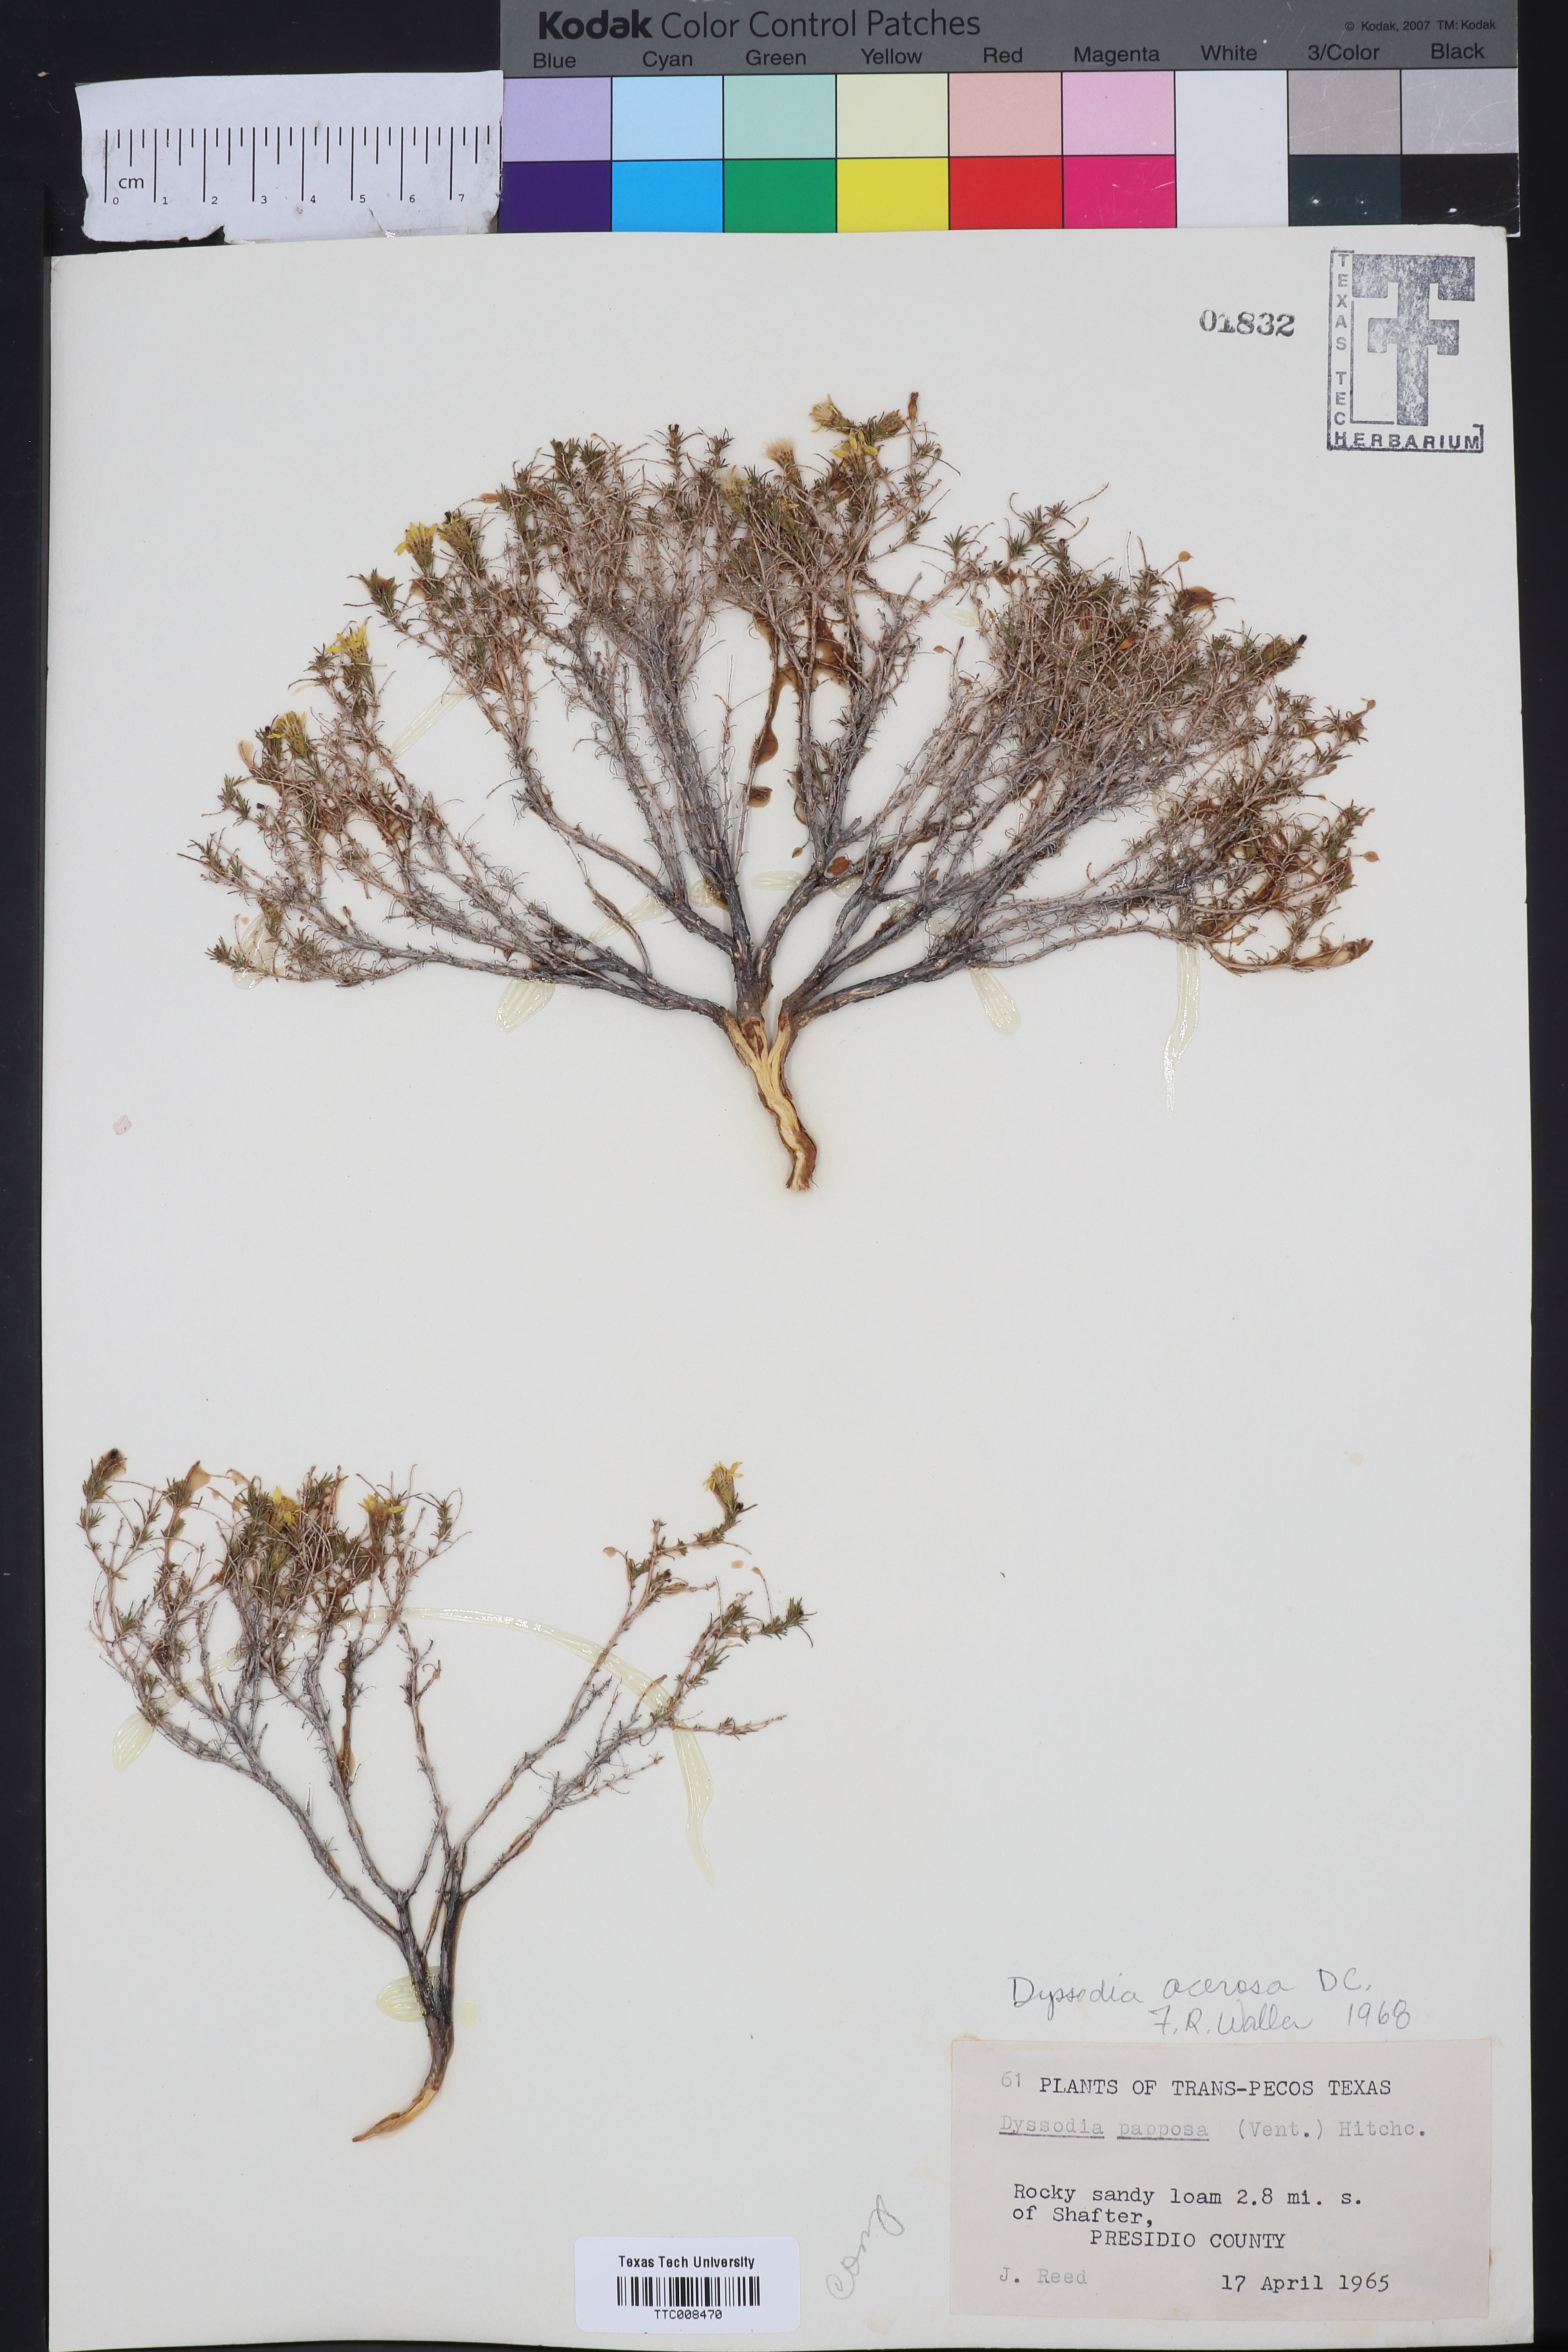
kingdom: Plantae
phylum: Tracheophyta
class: Magnoliopsida
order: Asterales
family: Asteraceae
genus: Thymophylla
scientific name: Thymophylla acerosa
